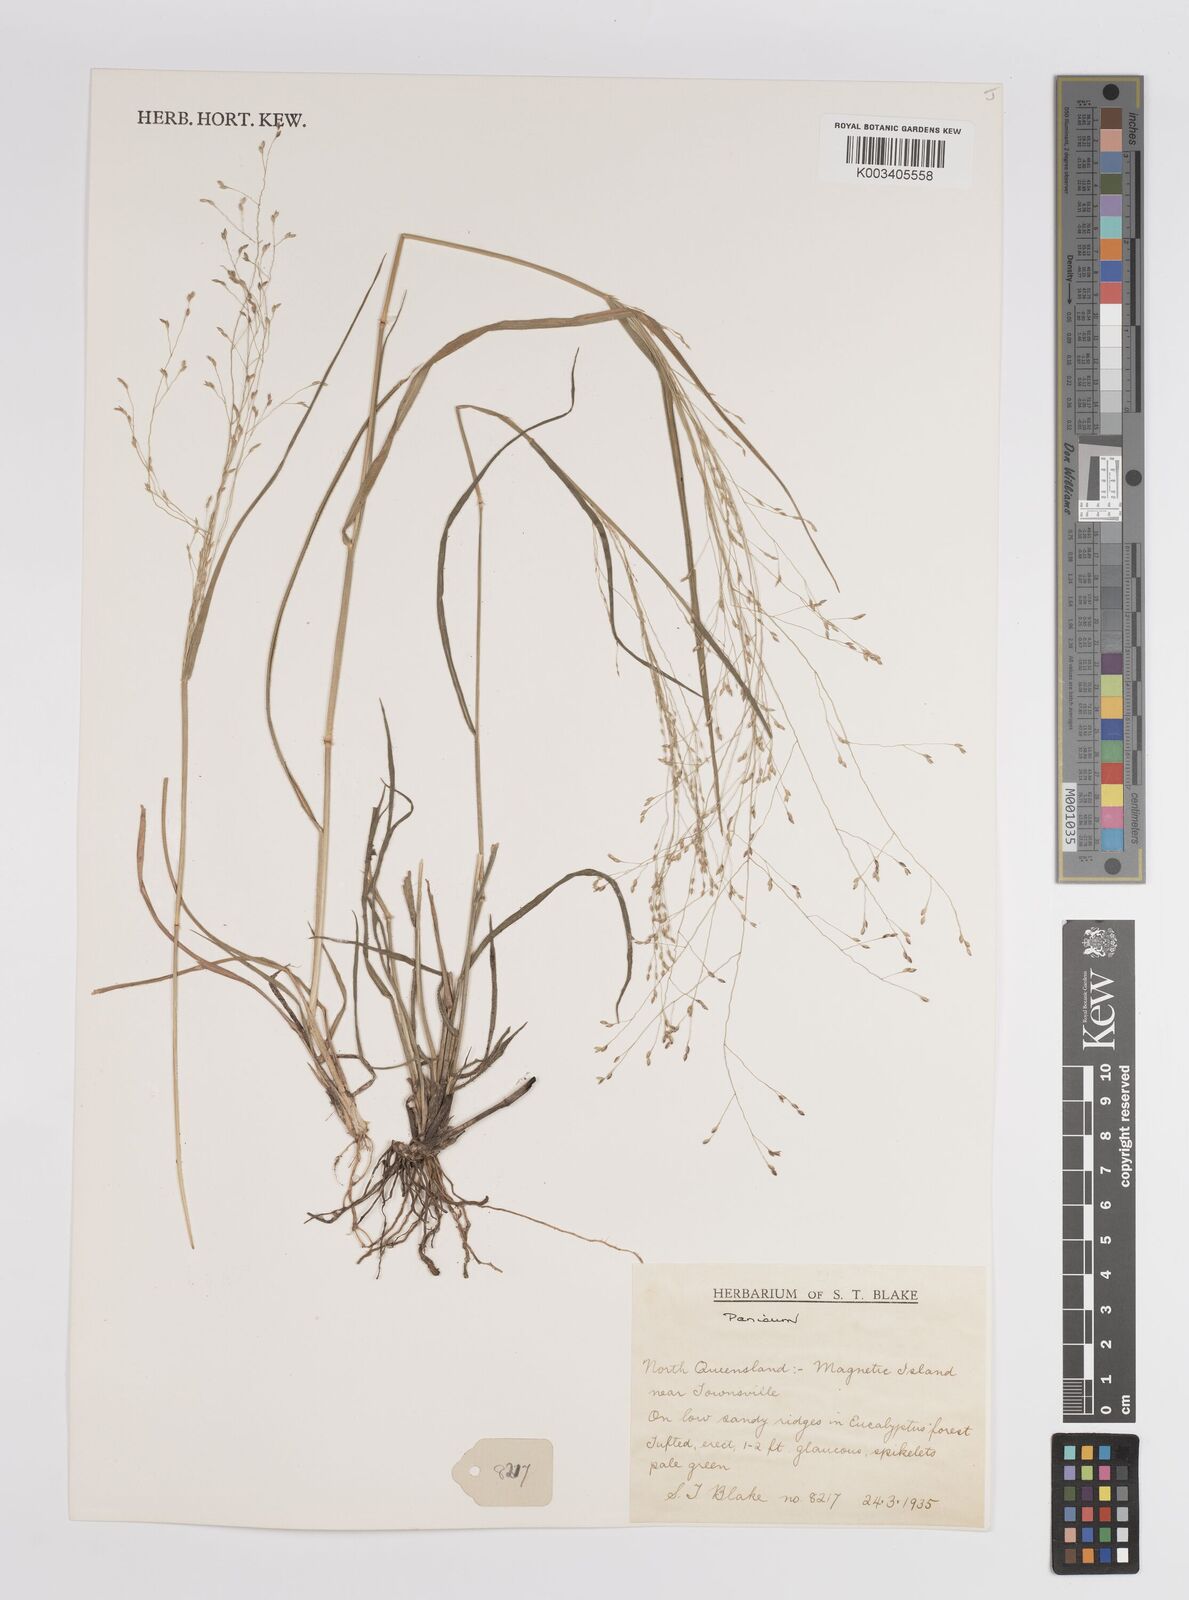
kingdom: Plantae
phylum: Tracheophyta
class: Liliopsida
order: Poales
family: Poaceae
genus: Panicum
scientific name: Panicum
